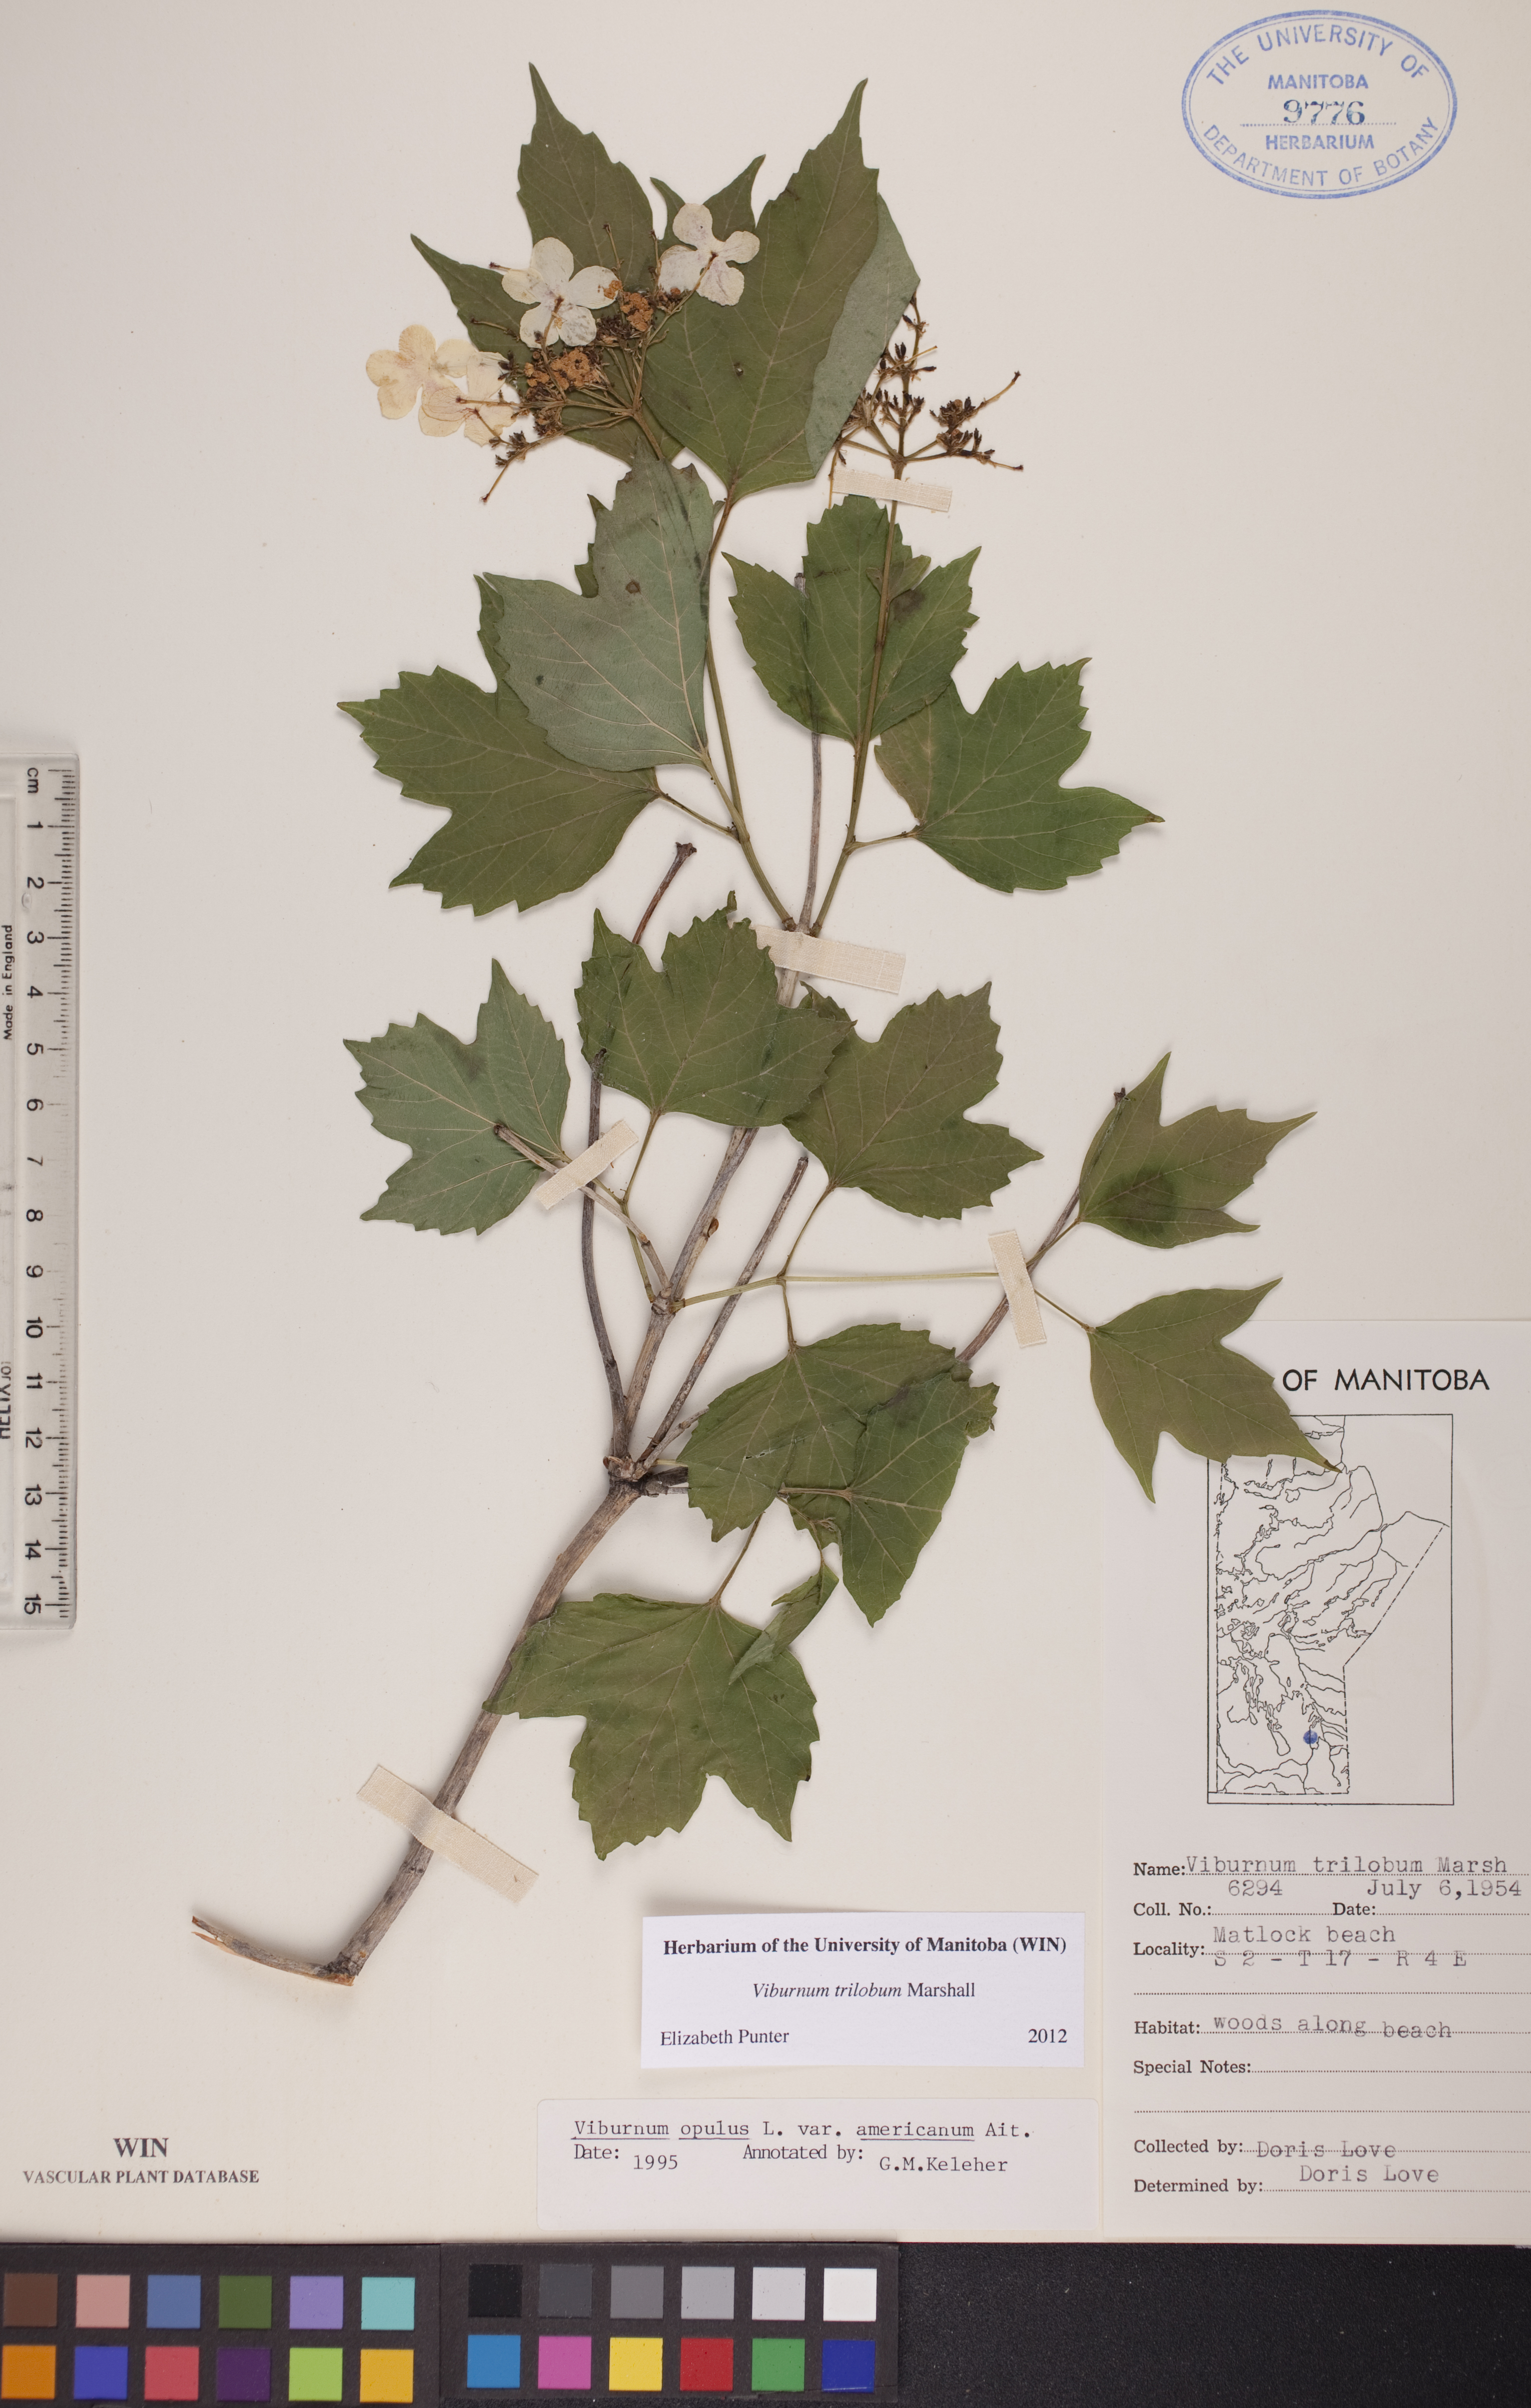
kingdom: Plantae
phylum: Tracheophyta
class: Magnoliopsida
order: Dipsacales
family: Viburnaceae
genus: Viburnum
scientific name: Viburnum trilobum
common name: American cranberrybush
